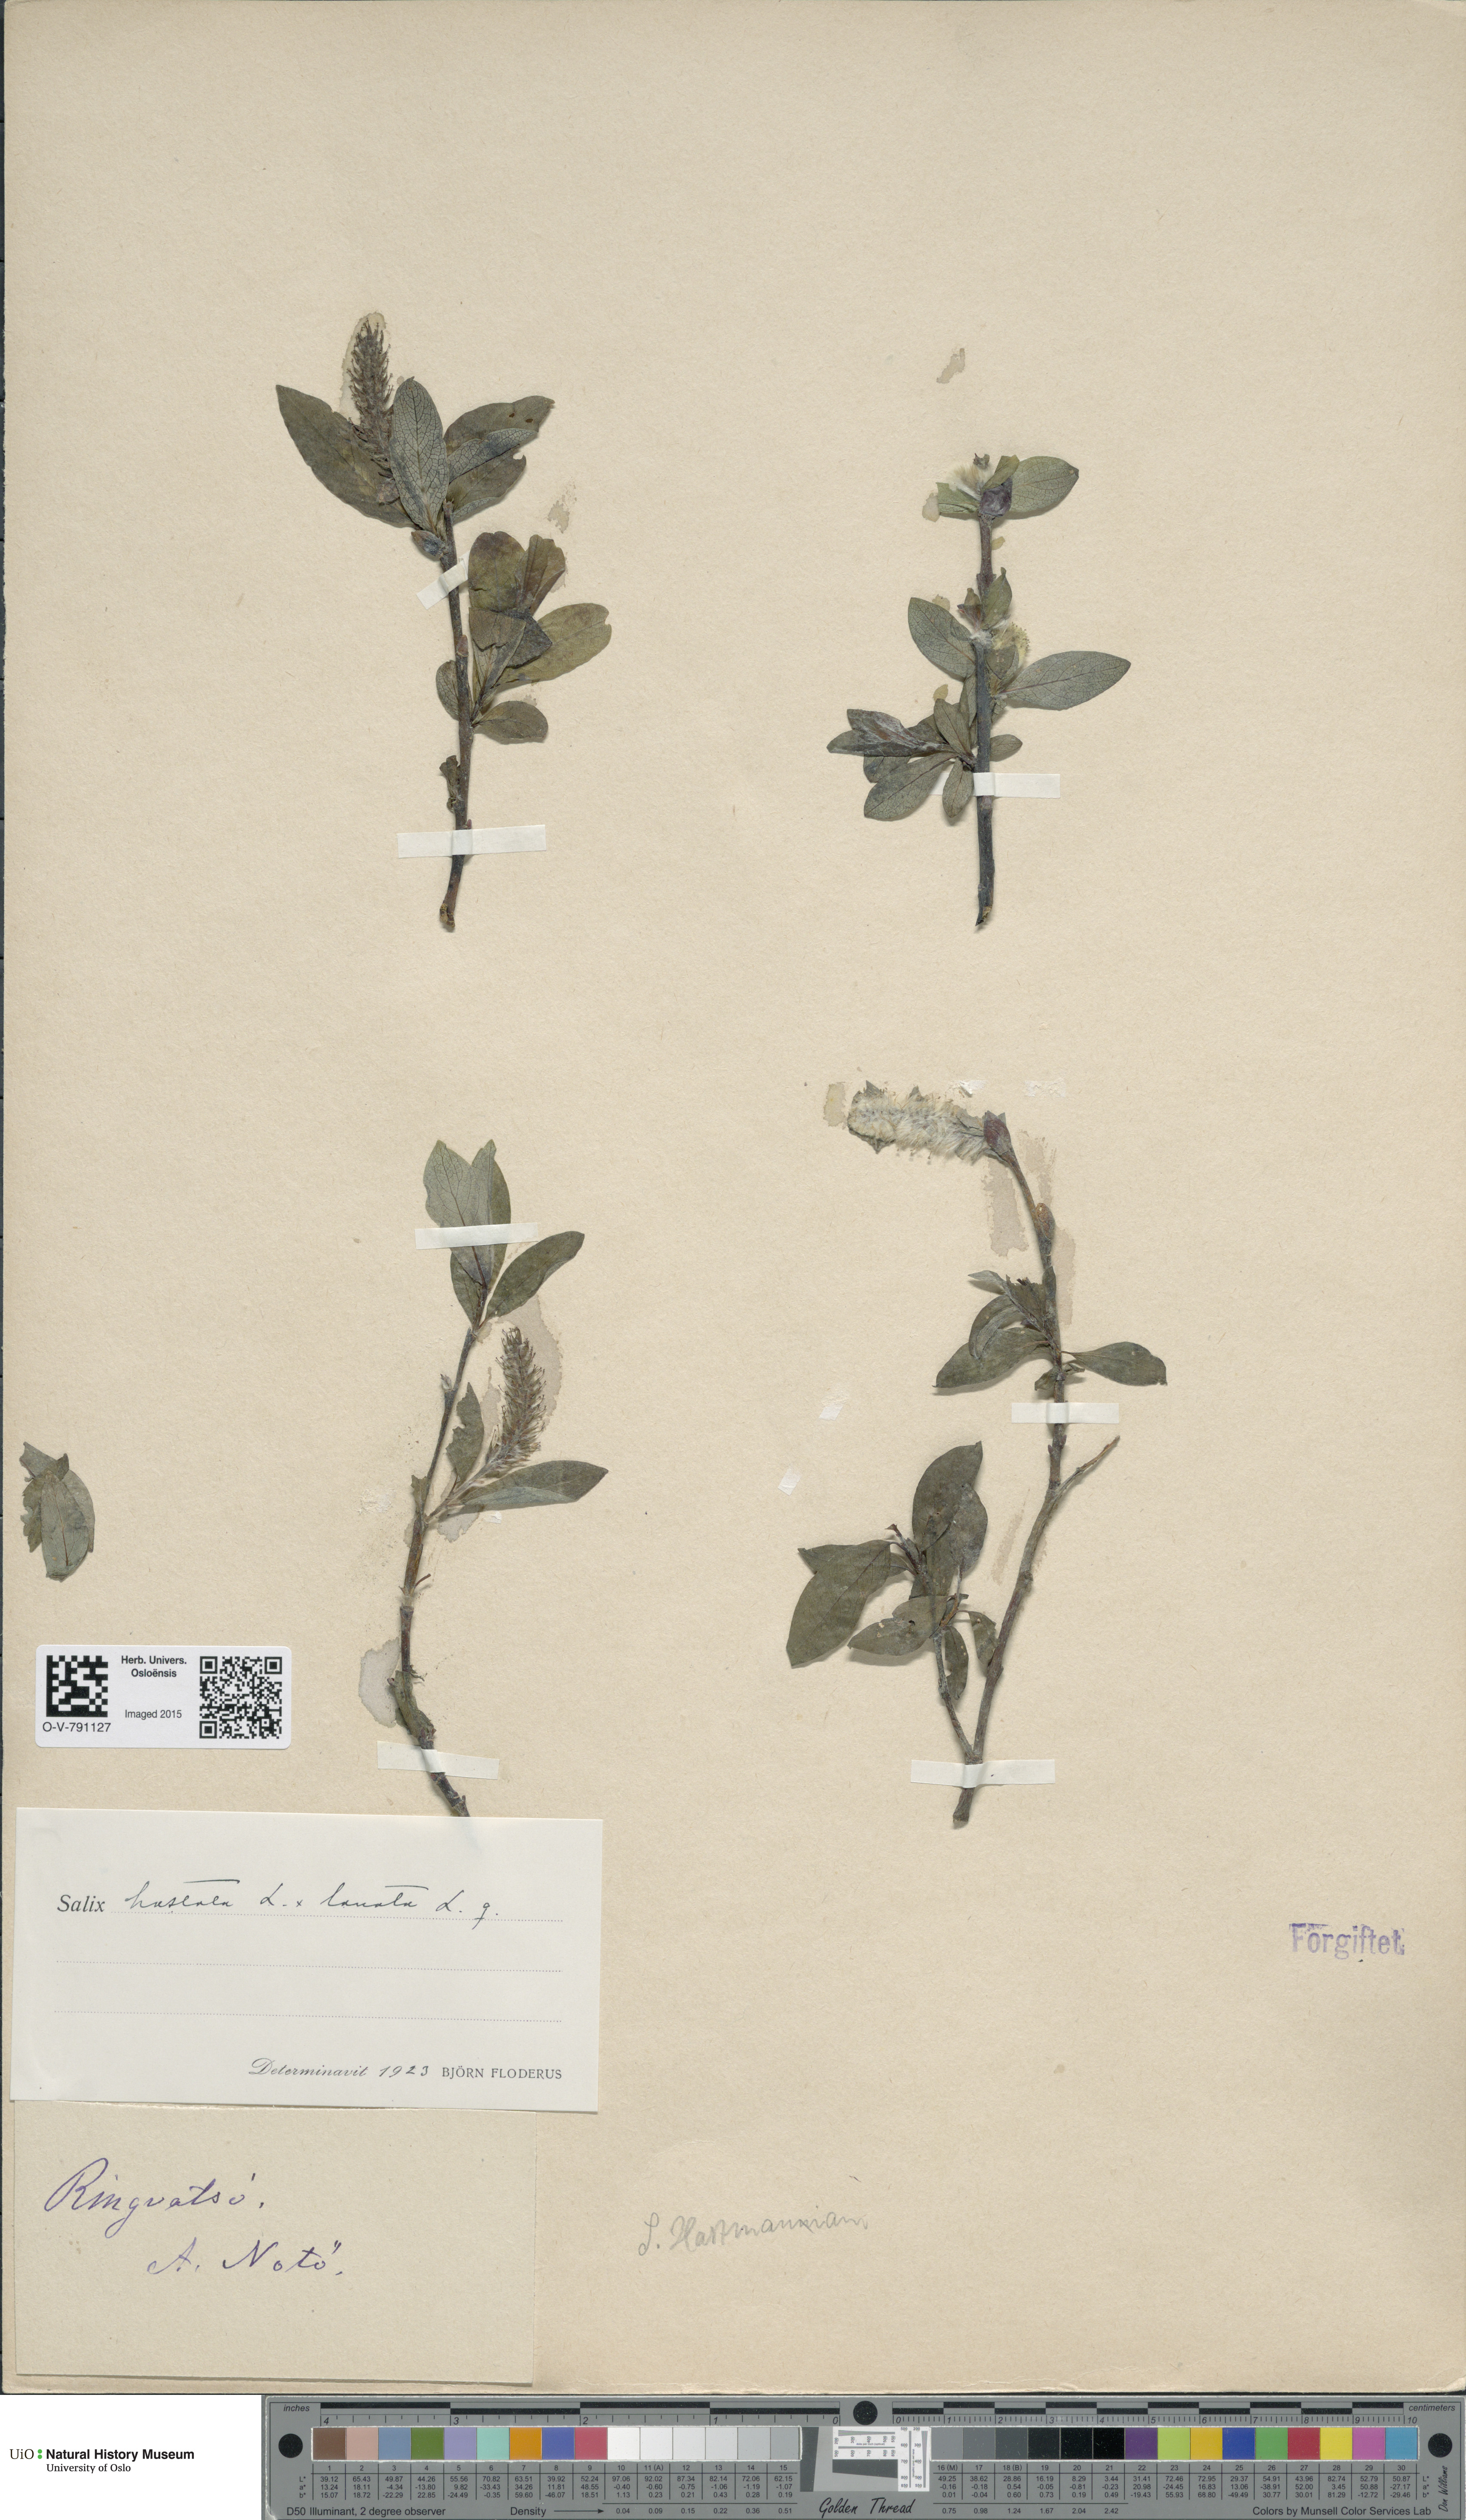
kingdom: Plantae
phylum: Tracheophyta
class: Magnoliopsida
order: Malpighiales
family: Salicaceae
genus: Salix
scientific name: Salix
